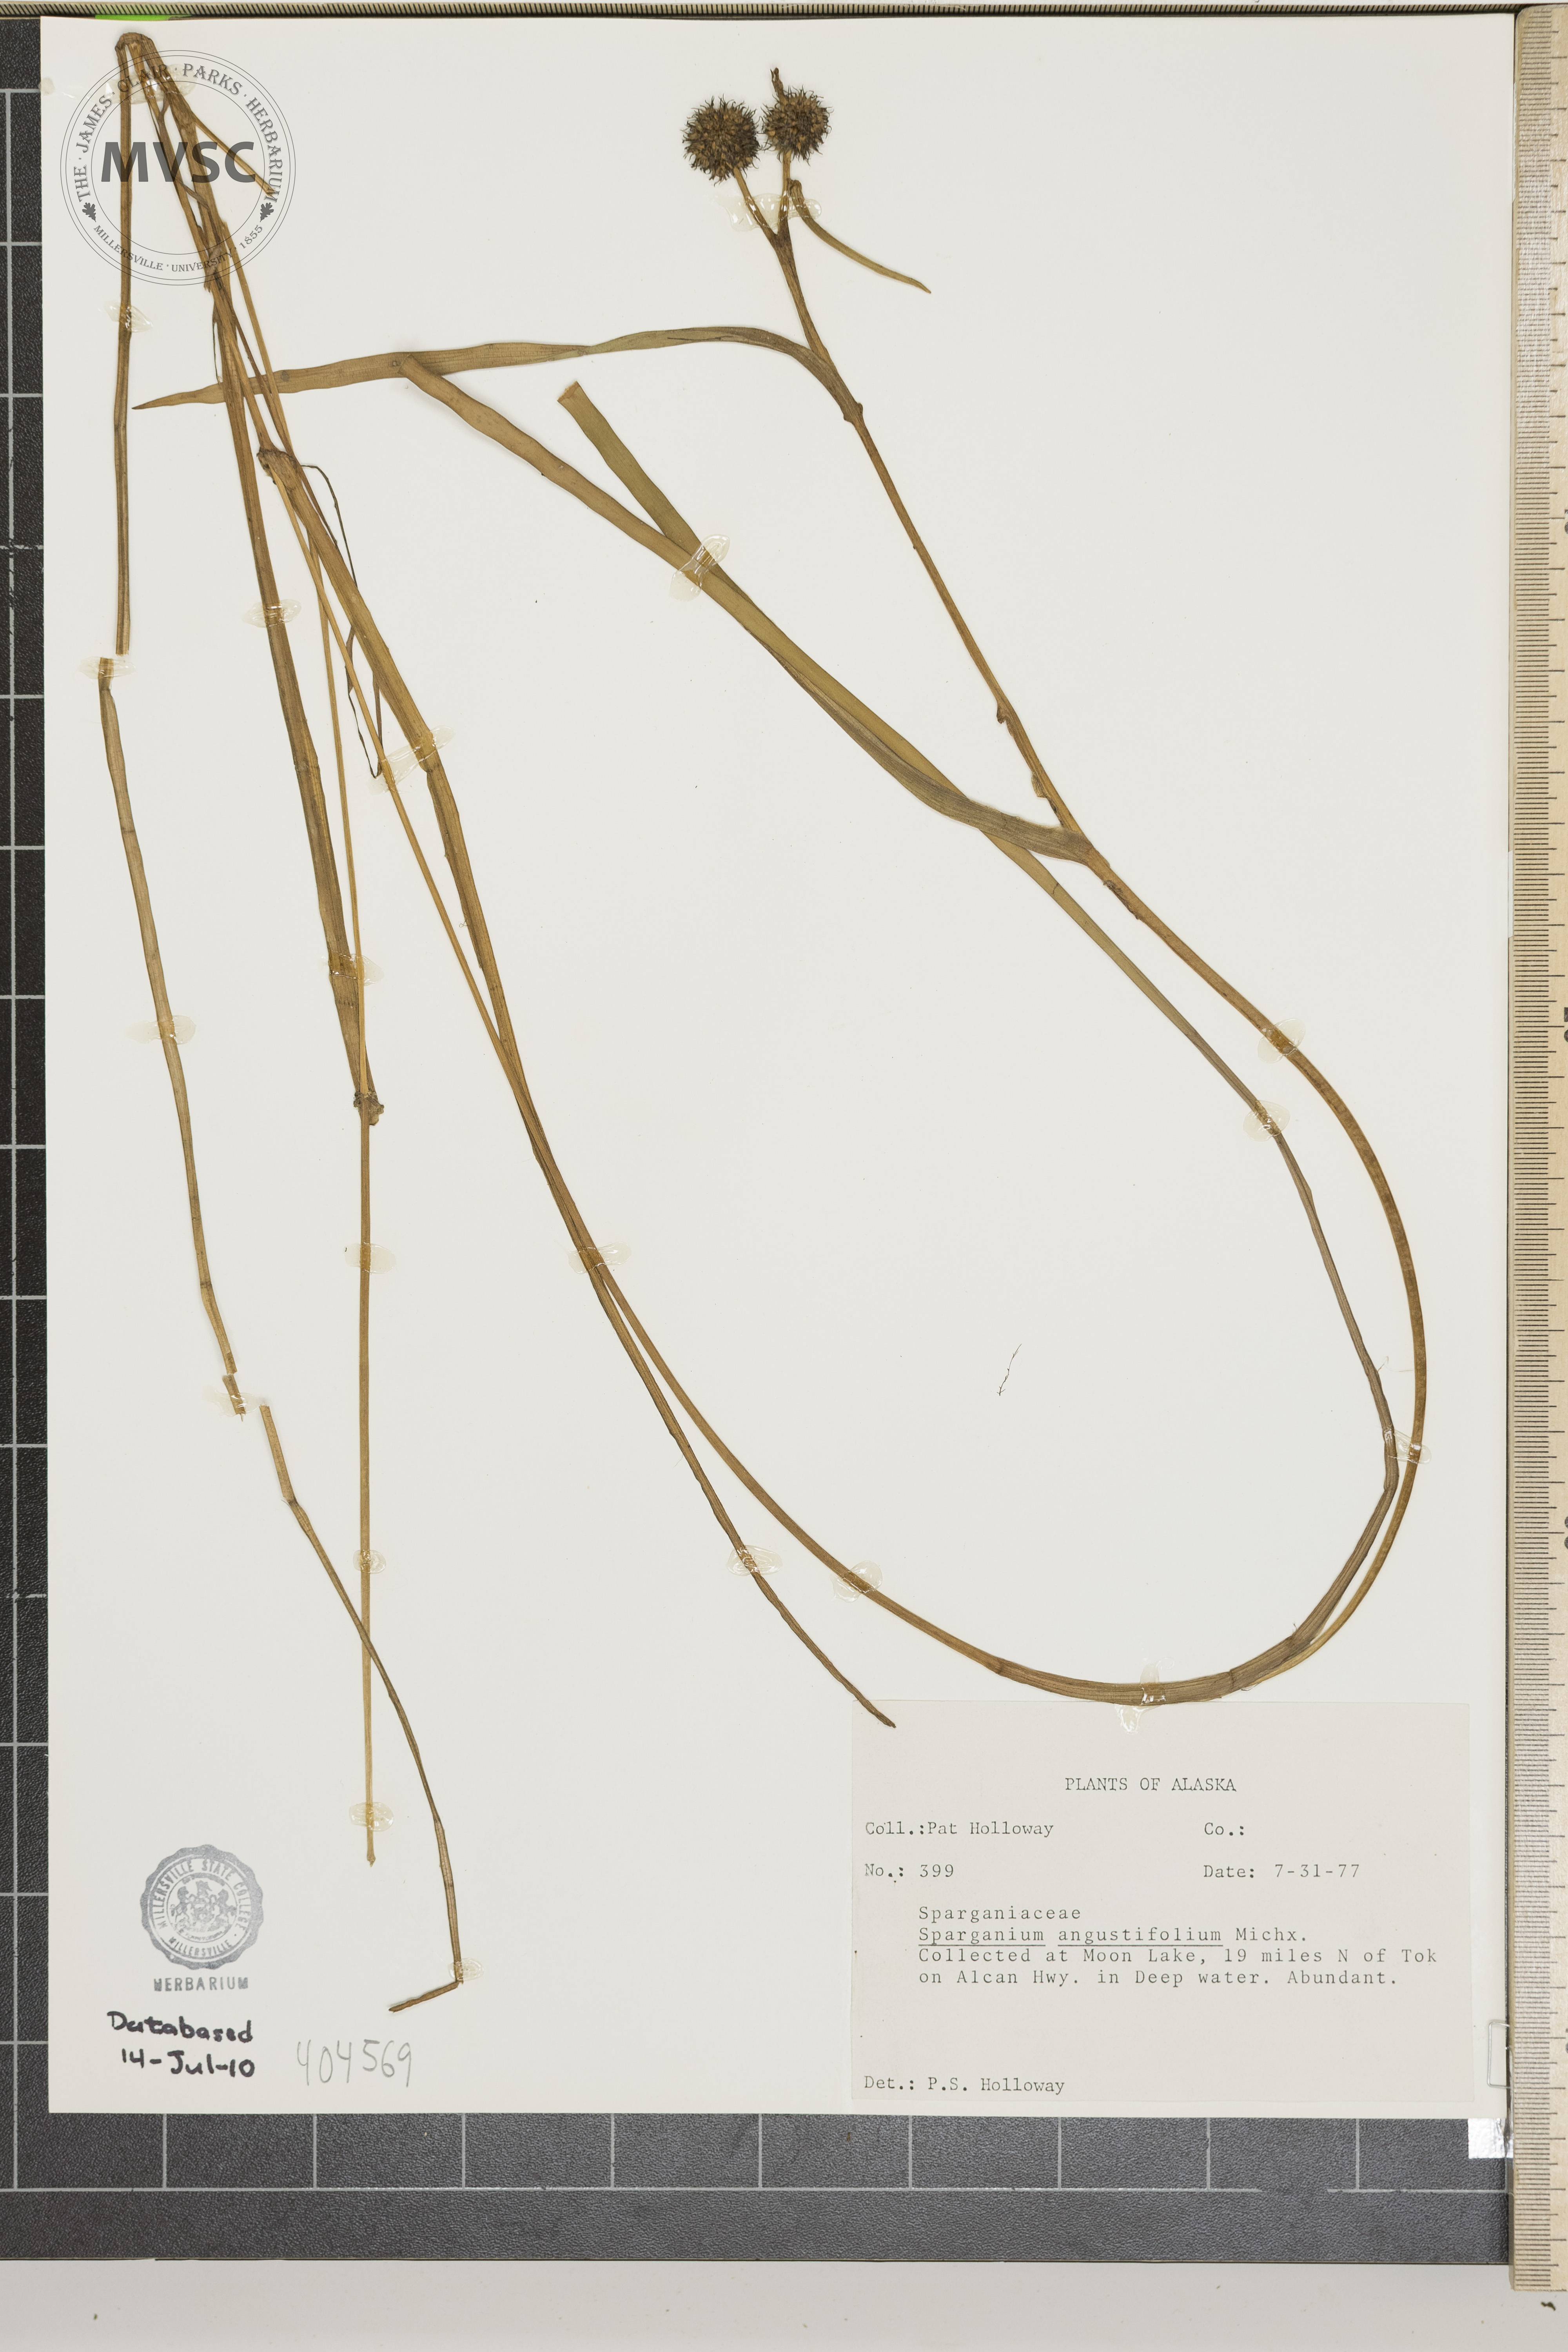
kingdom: Plantae
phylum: Tracheophyta
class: Liliopsida
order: Poales
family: Typhaceae
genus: Sparganium
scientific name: Sparganium angustifolium
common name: Floating bur-reed
